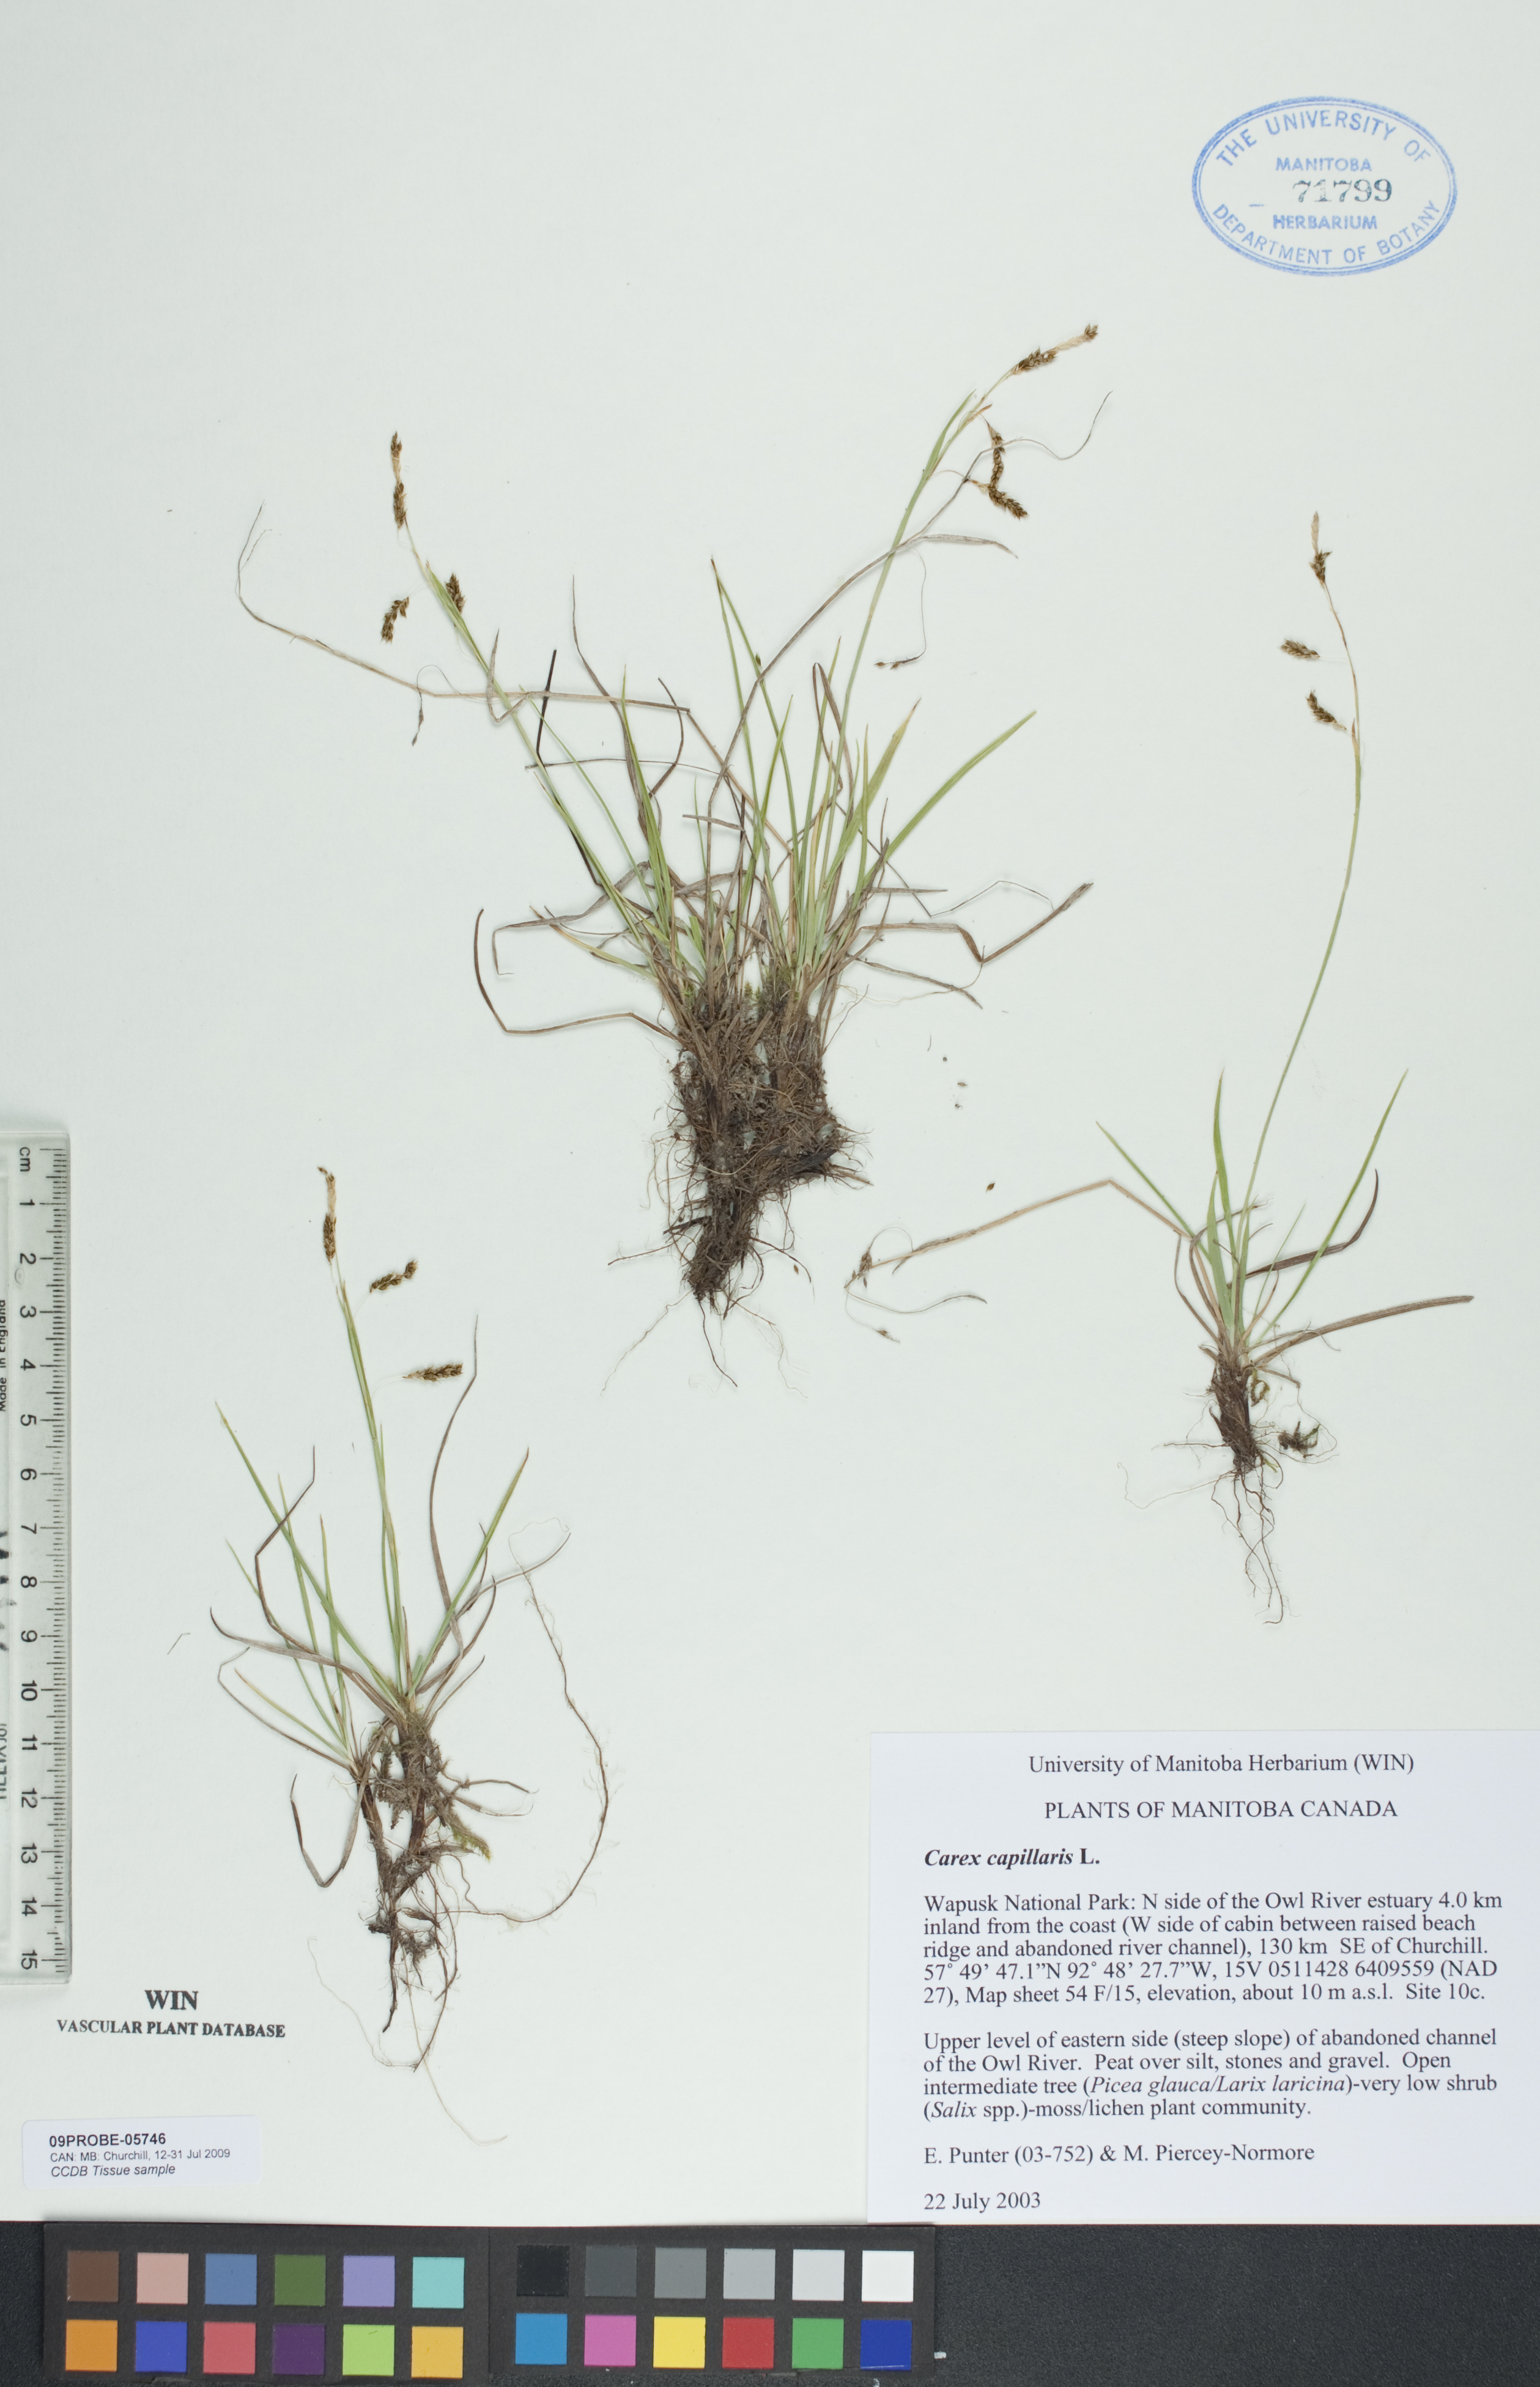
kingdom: Plantae
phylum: Tracheophyta
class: Liliopsida
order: Poales
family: Cyperaceae
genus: Carex
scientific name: Carex capillaris
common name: Hair sedge
